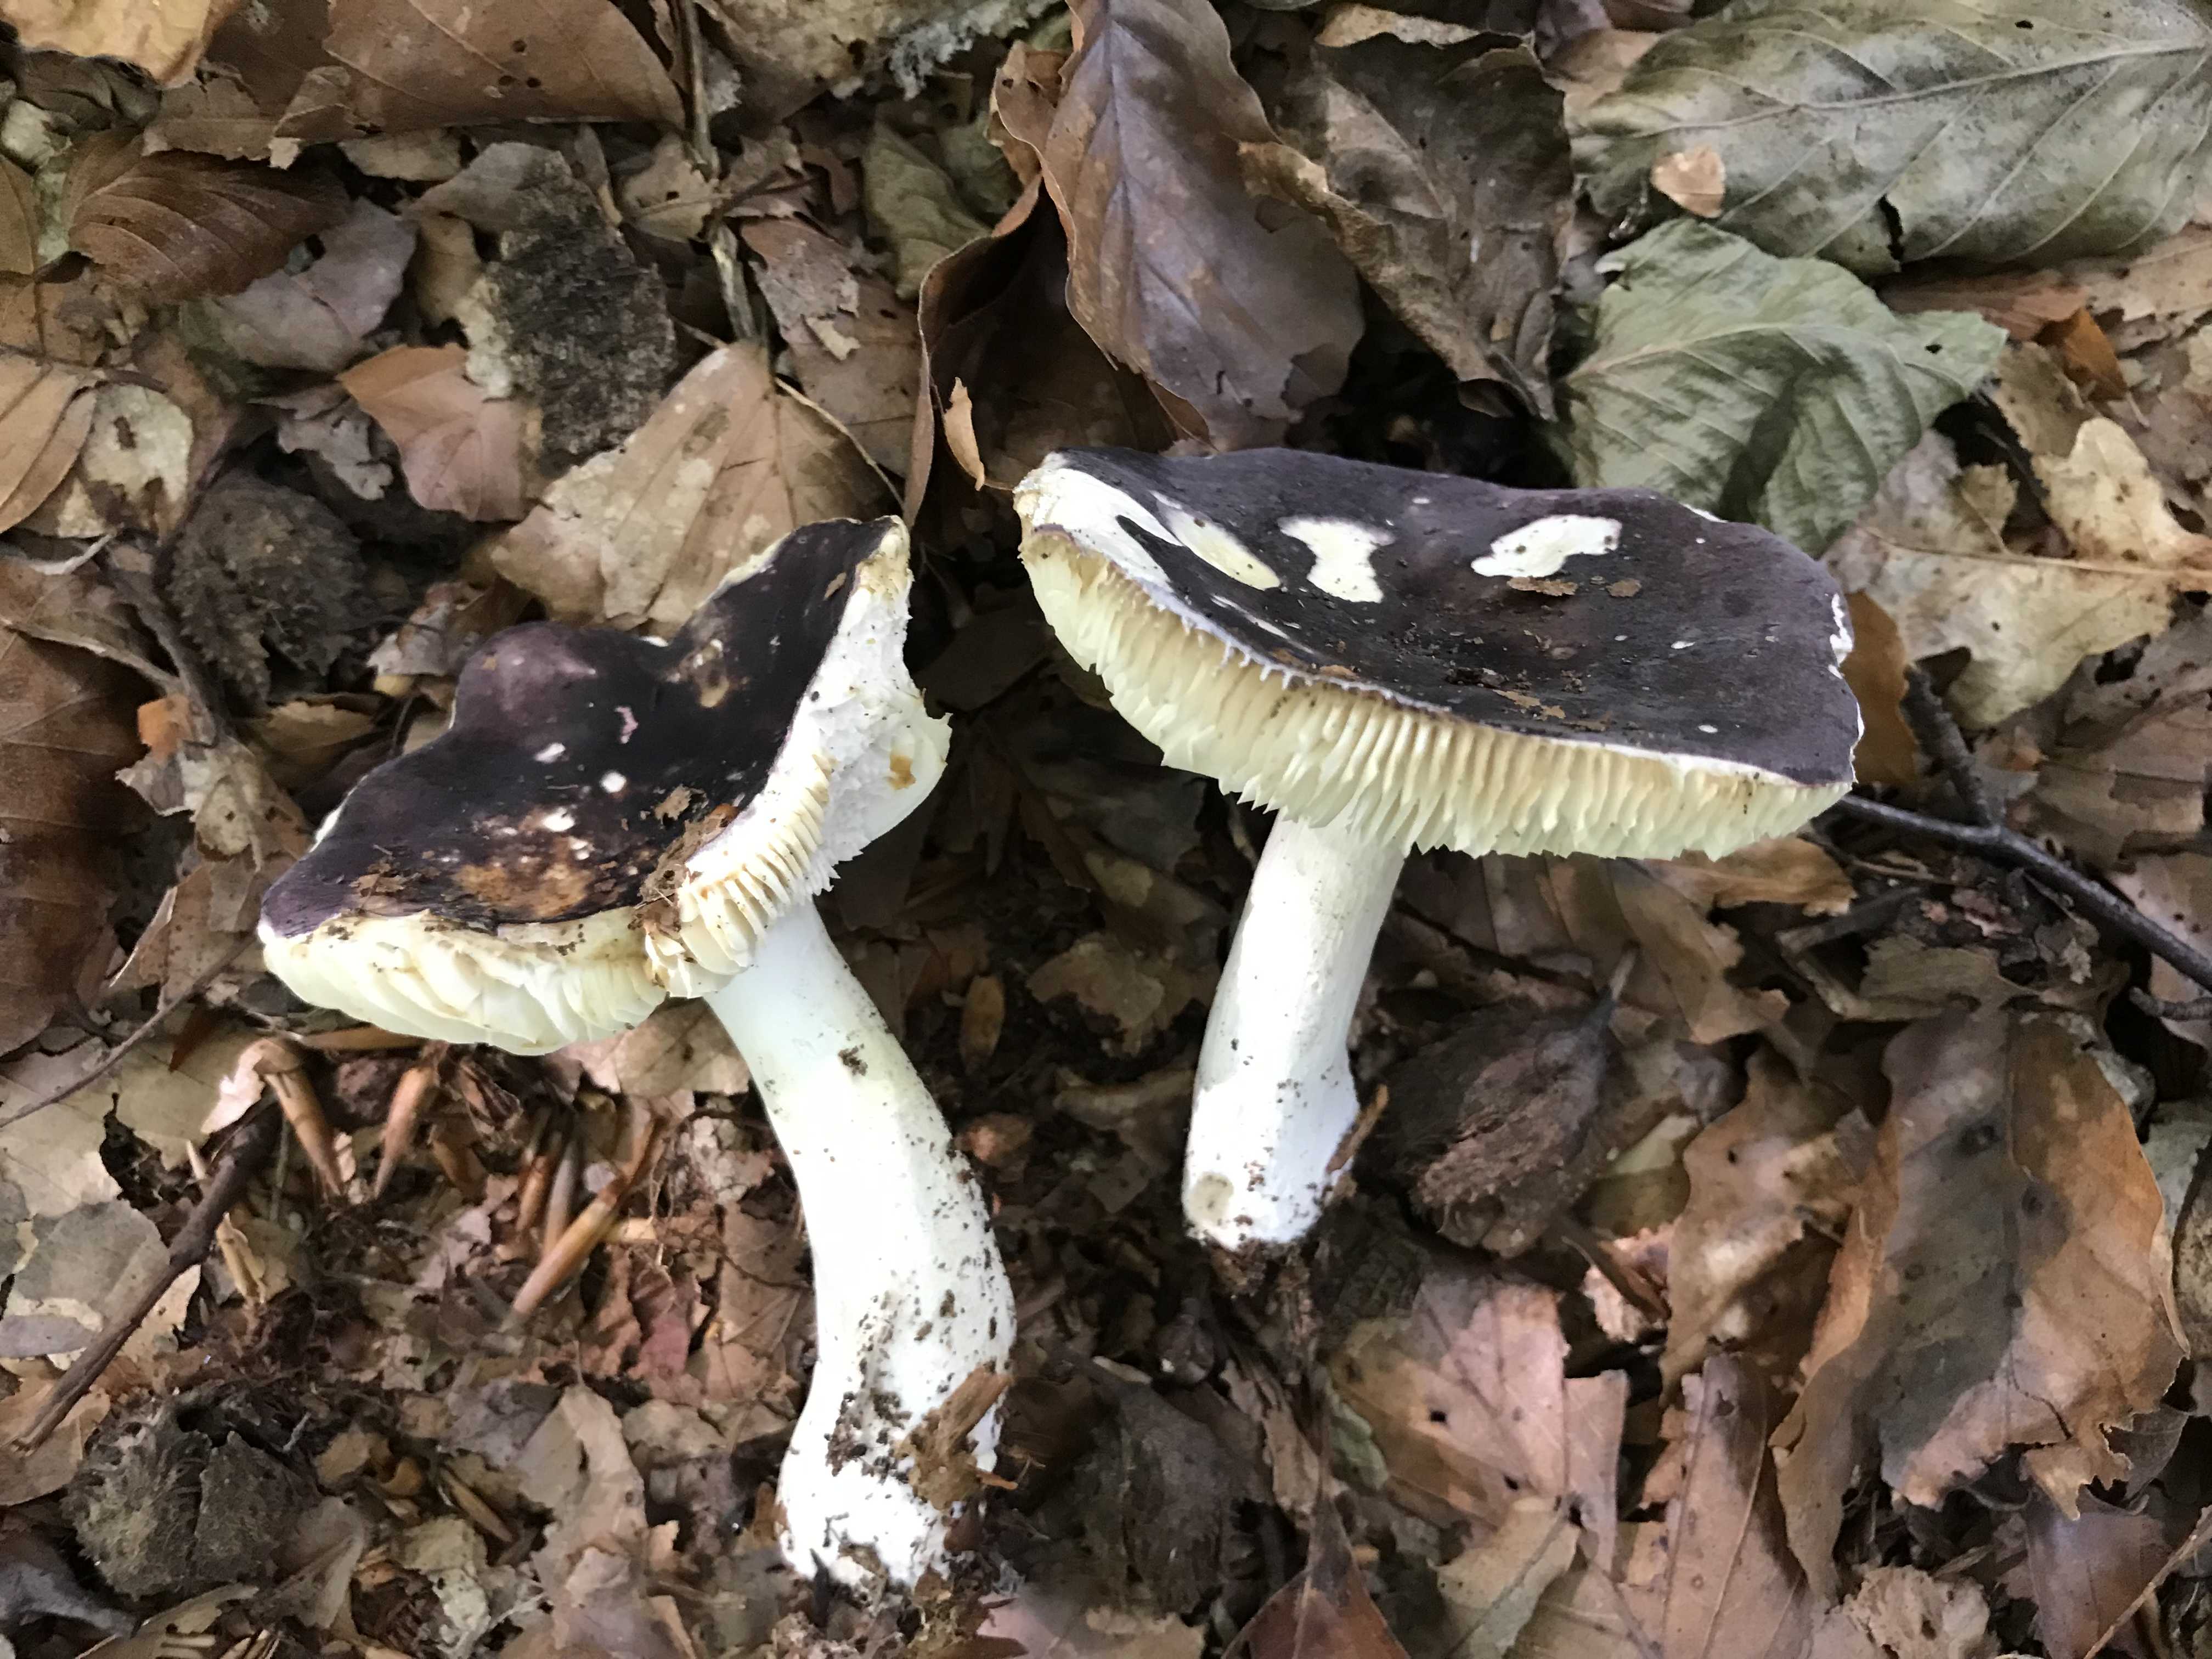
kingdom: Fungi
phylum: Basidiomycota
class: Agaricomycetes
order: Russulales
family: Russulaceae
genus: Russula
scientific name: Russula brunneoviolacea
